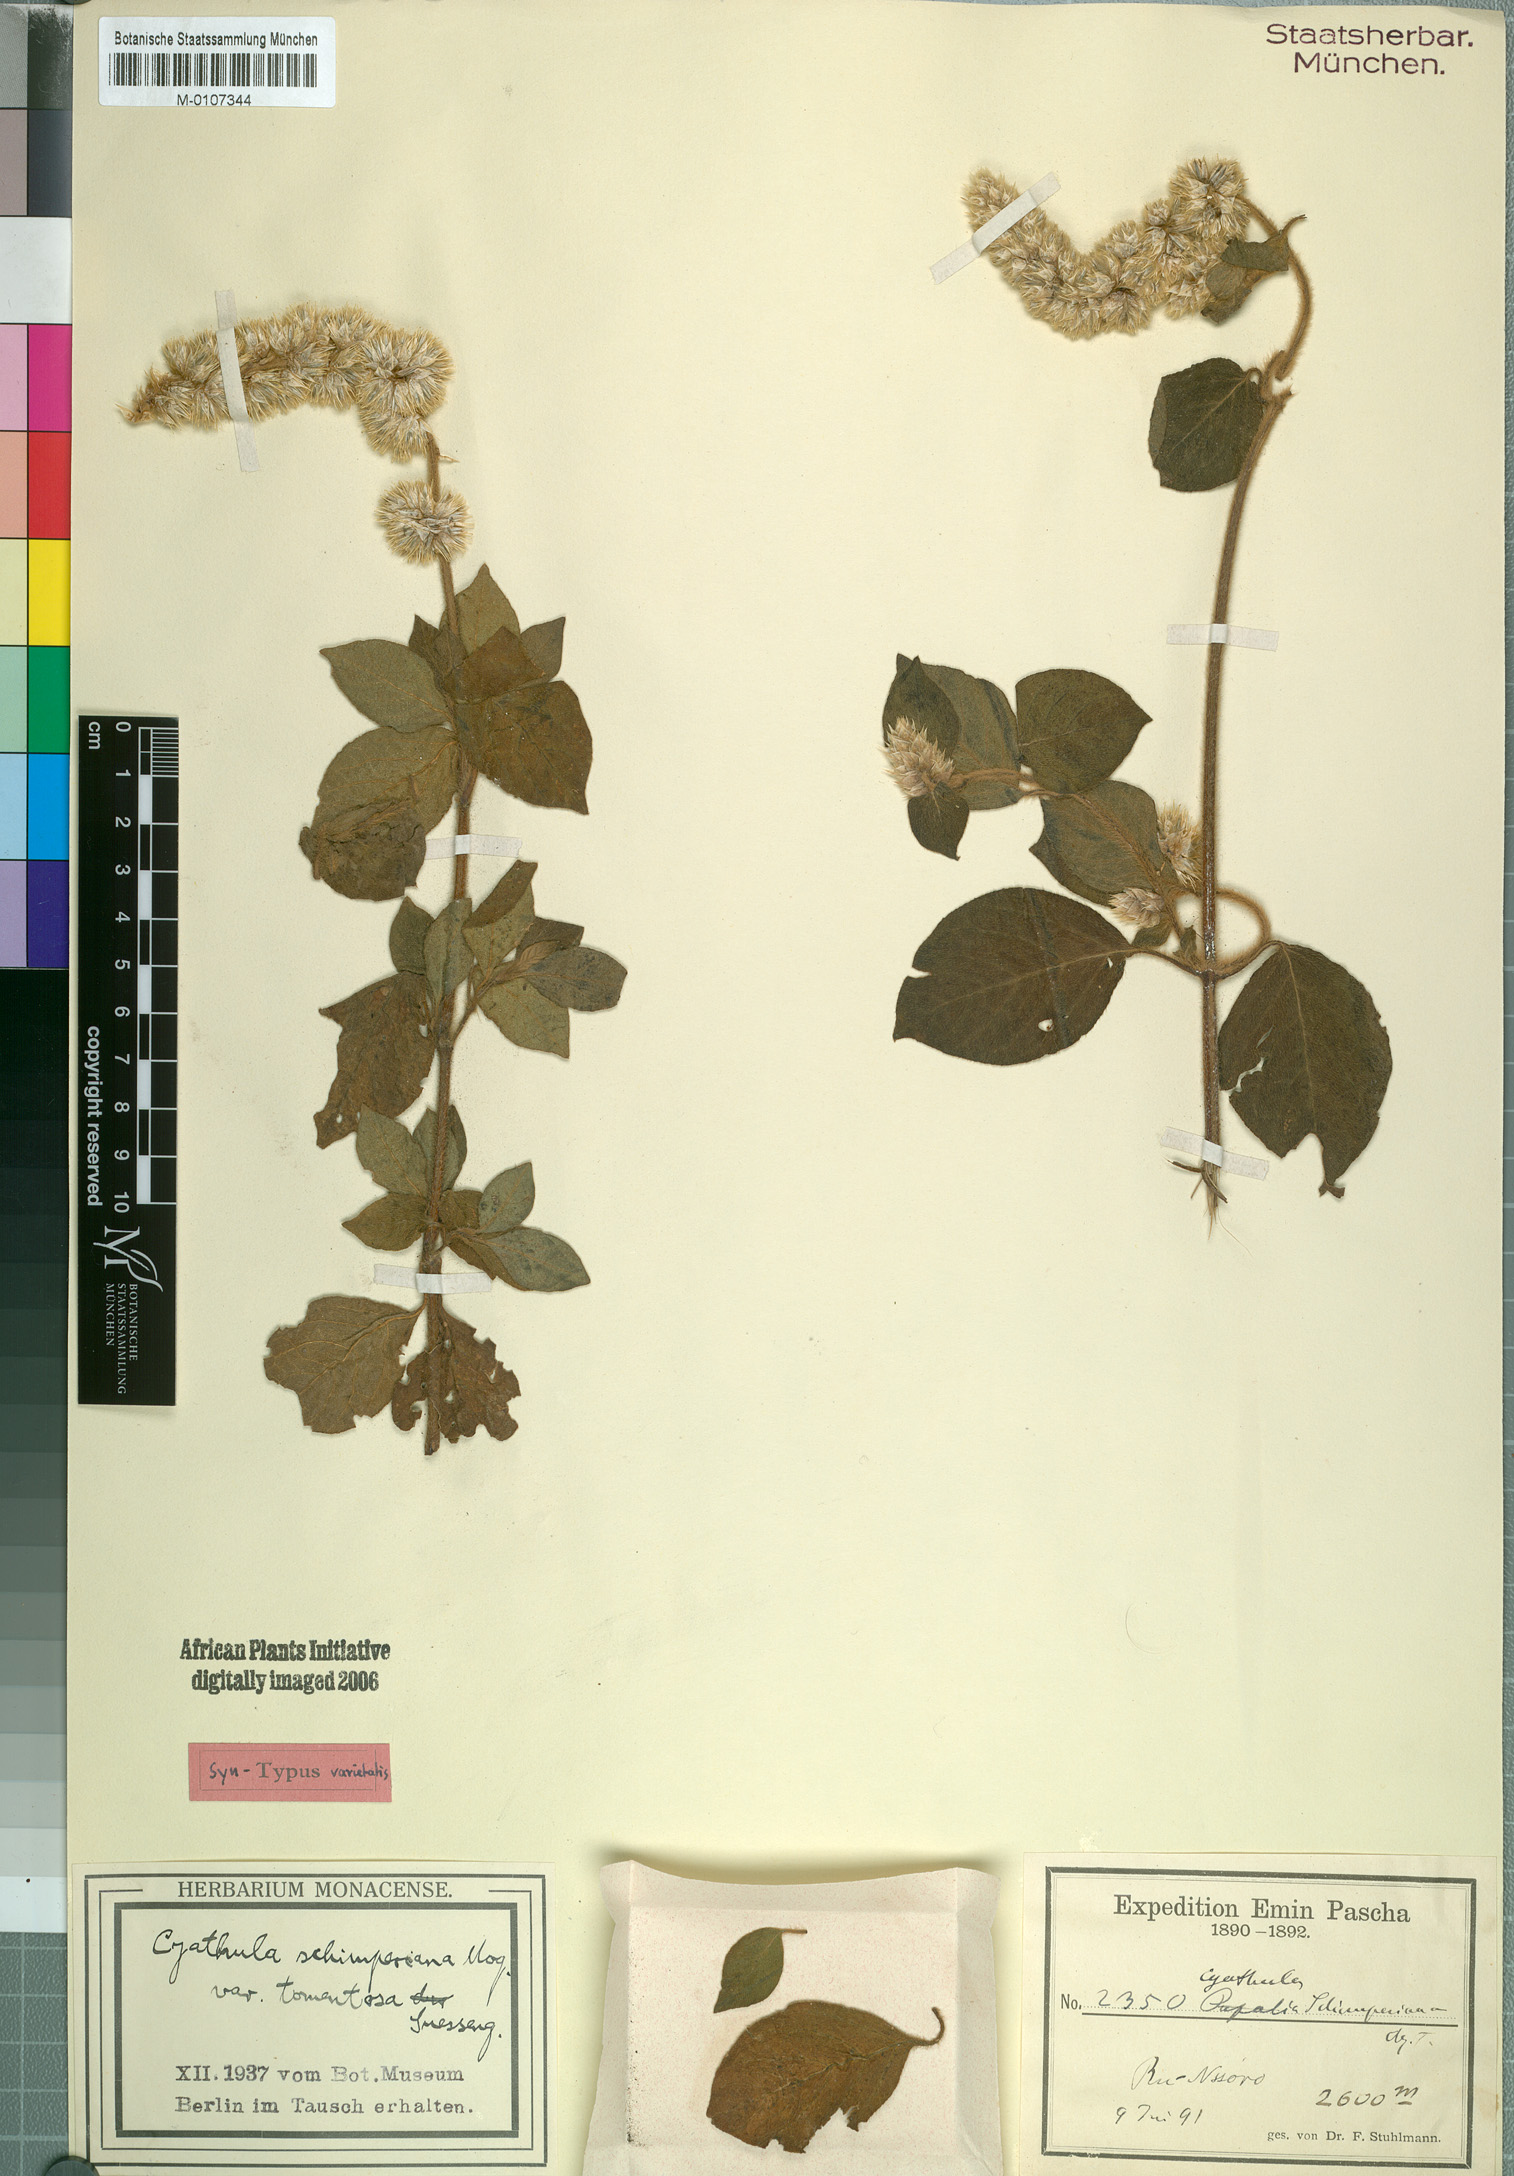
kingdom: Plantae
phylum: Tracheophyta
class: Magnoliopsida
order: Caryophyllales
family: Amaranthaceae
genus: Cyathula
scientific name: Cyathula polycephala
